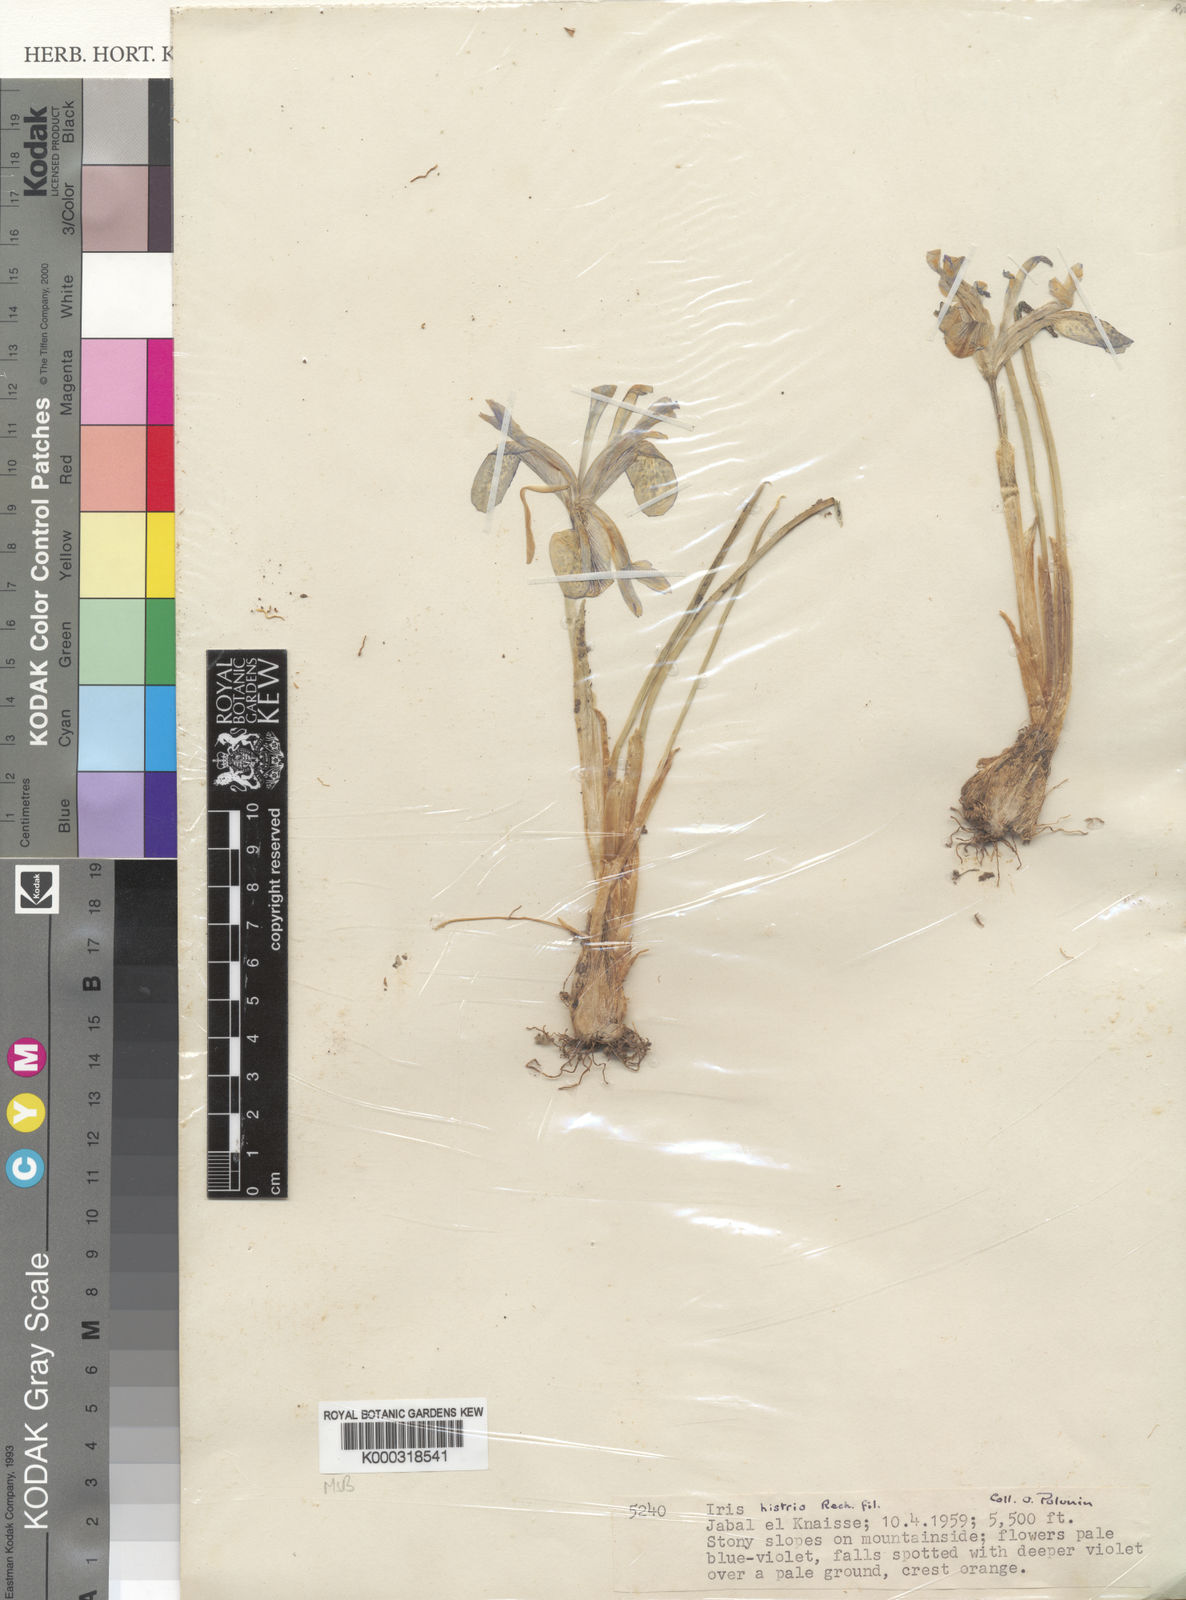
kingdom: Plantae
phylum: Tracheophyta
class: Liliopsida
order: Asparagales
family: Iridaceae
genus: Iris
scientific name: Iris histrio
